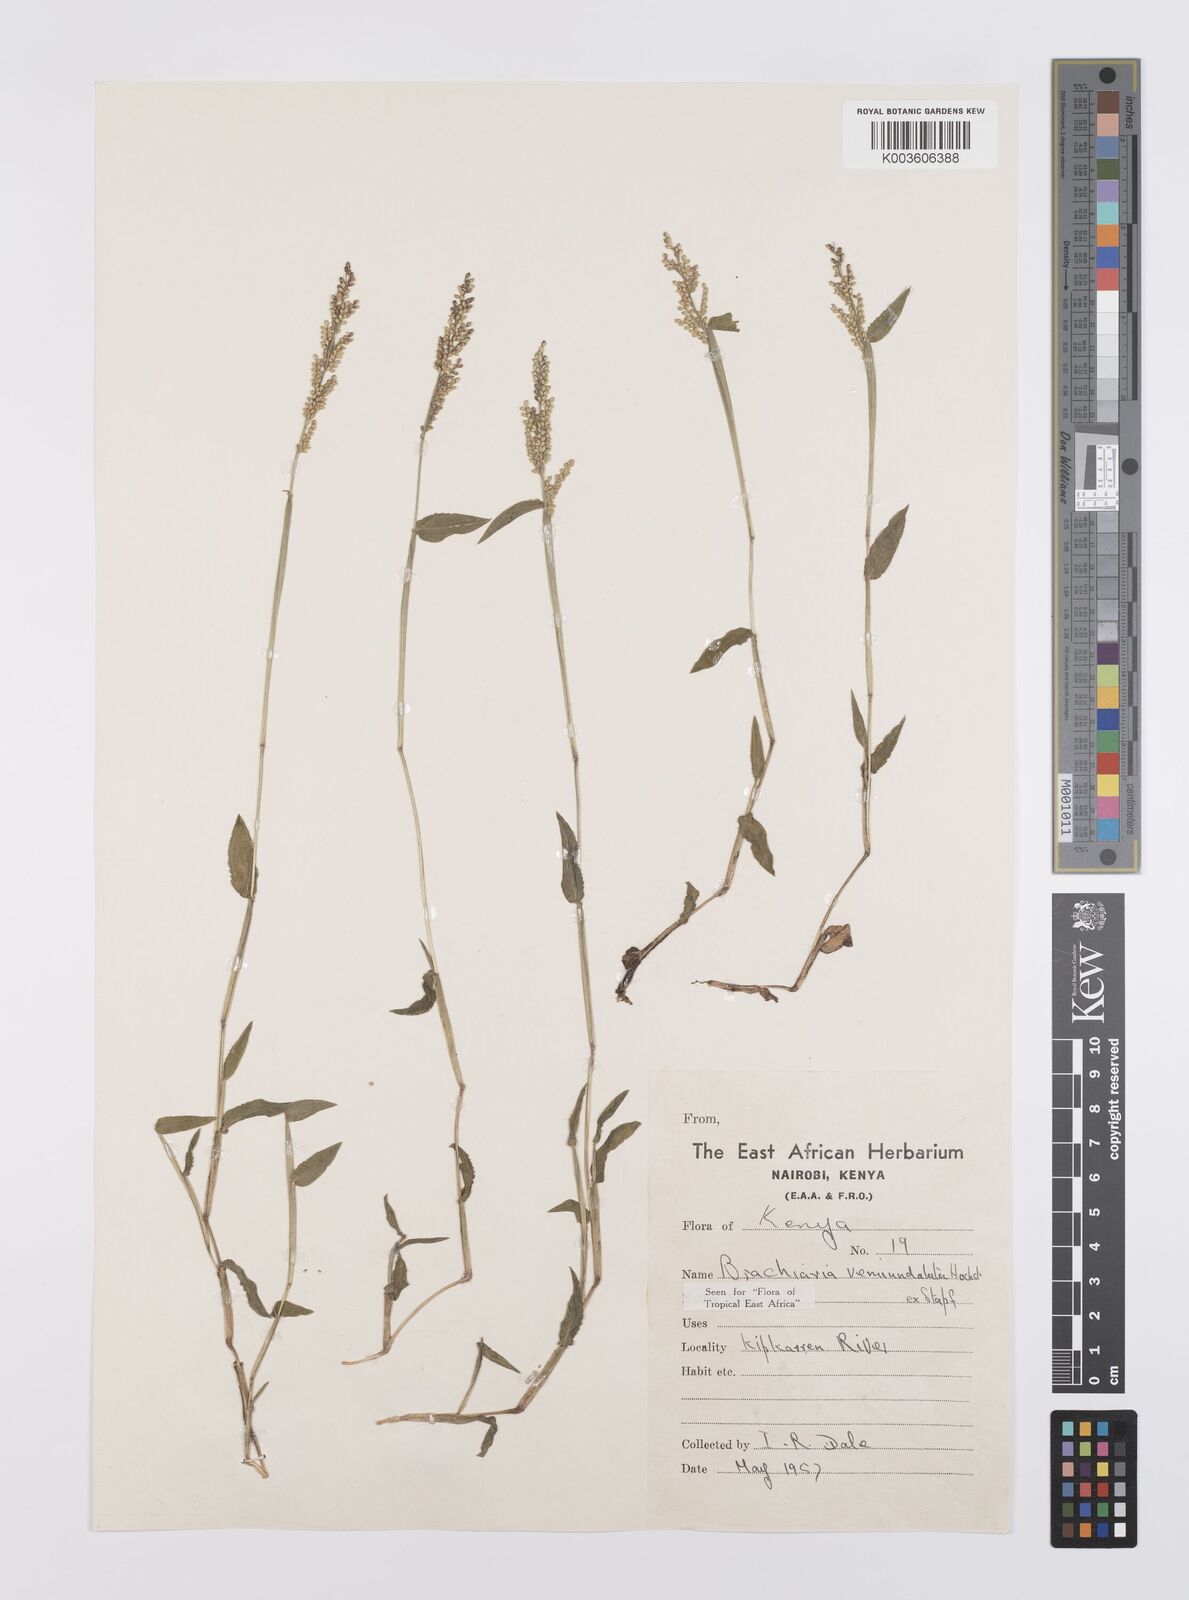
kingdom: Plantae
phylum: Tracheophyta
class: Liliopsida
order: Poales
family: Poaceae
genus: Urochloa
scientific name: Urochloa semiundulata
